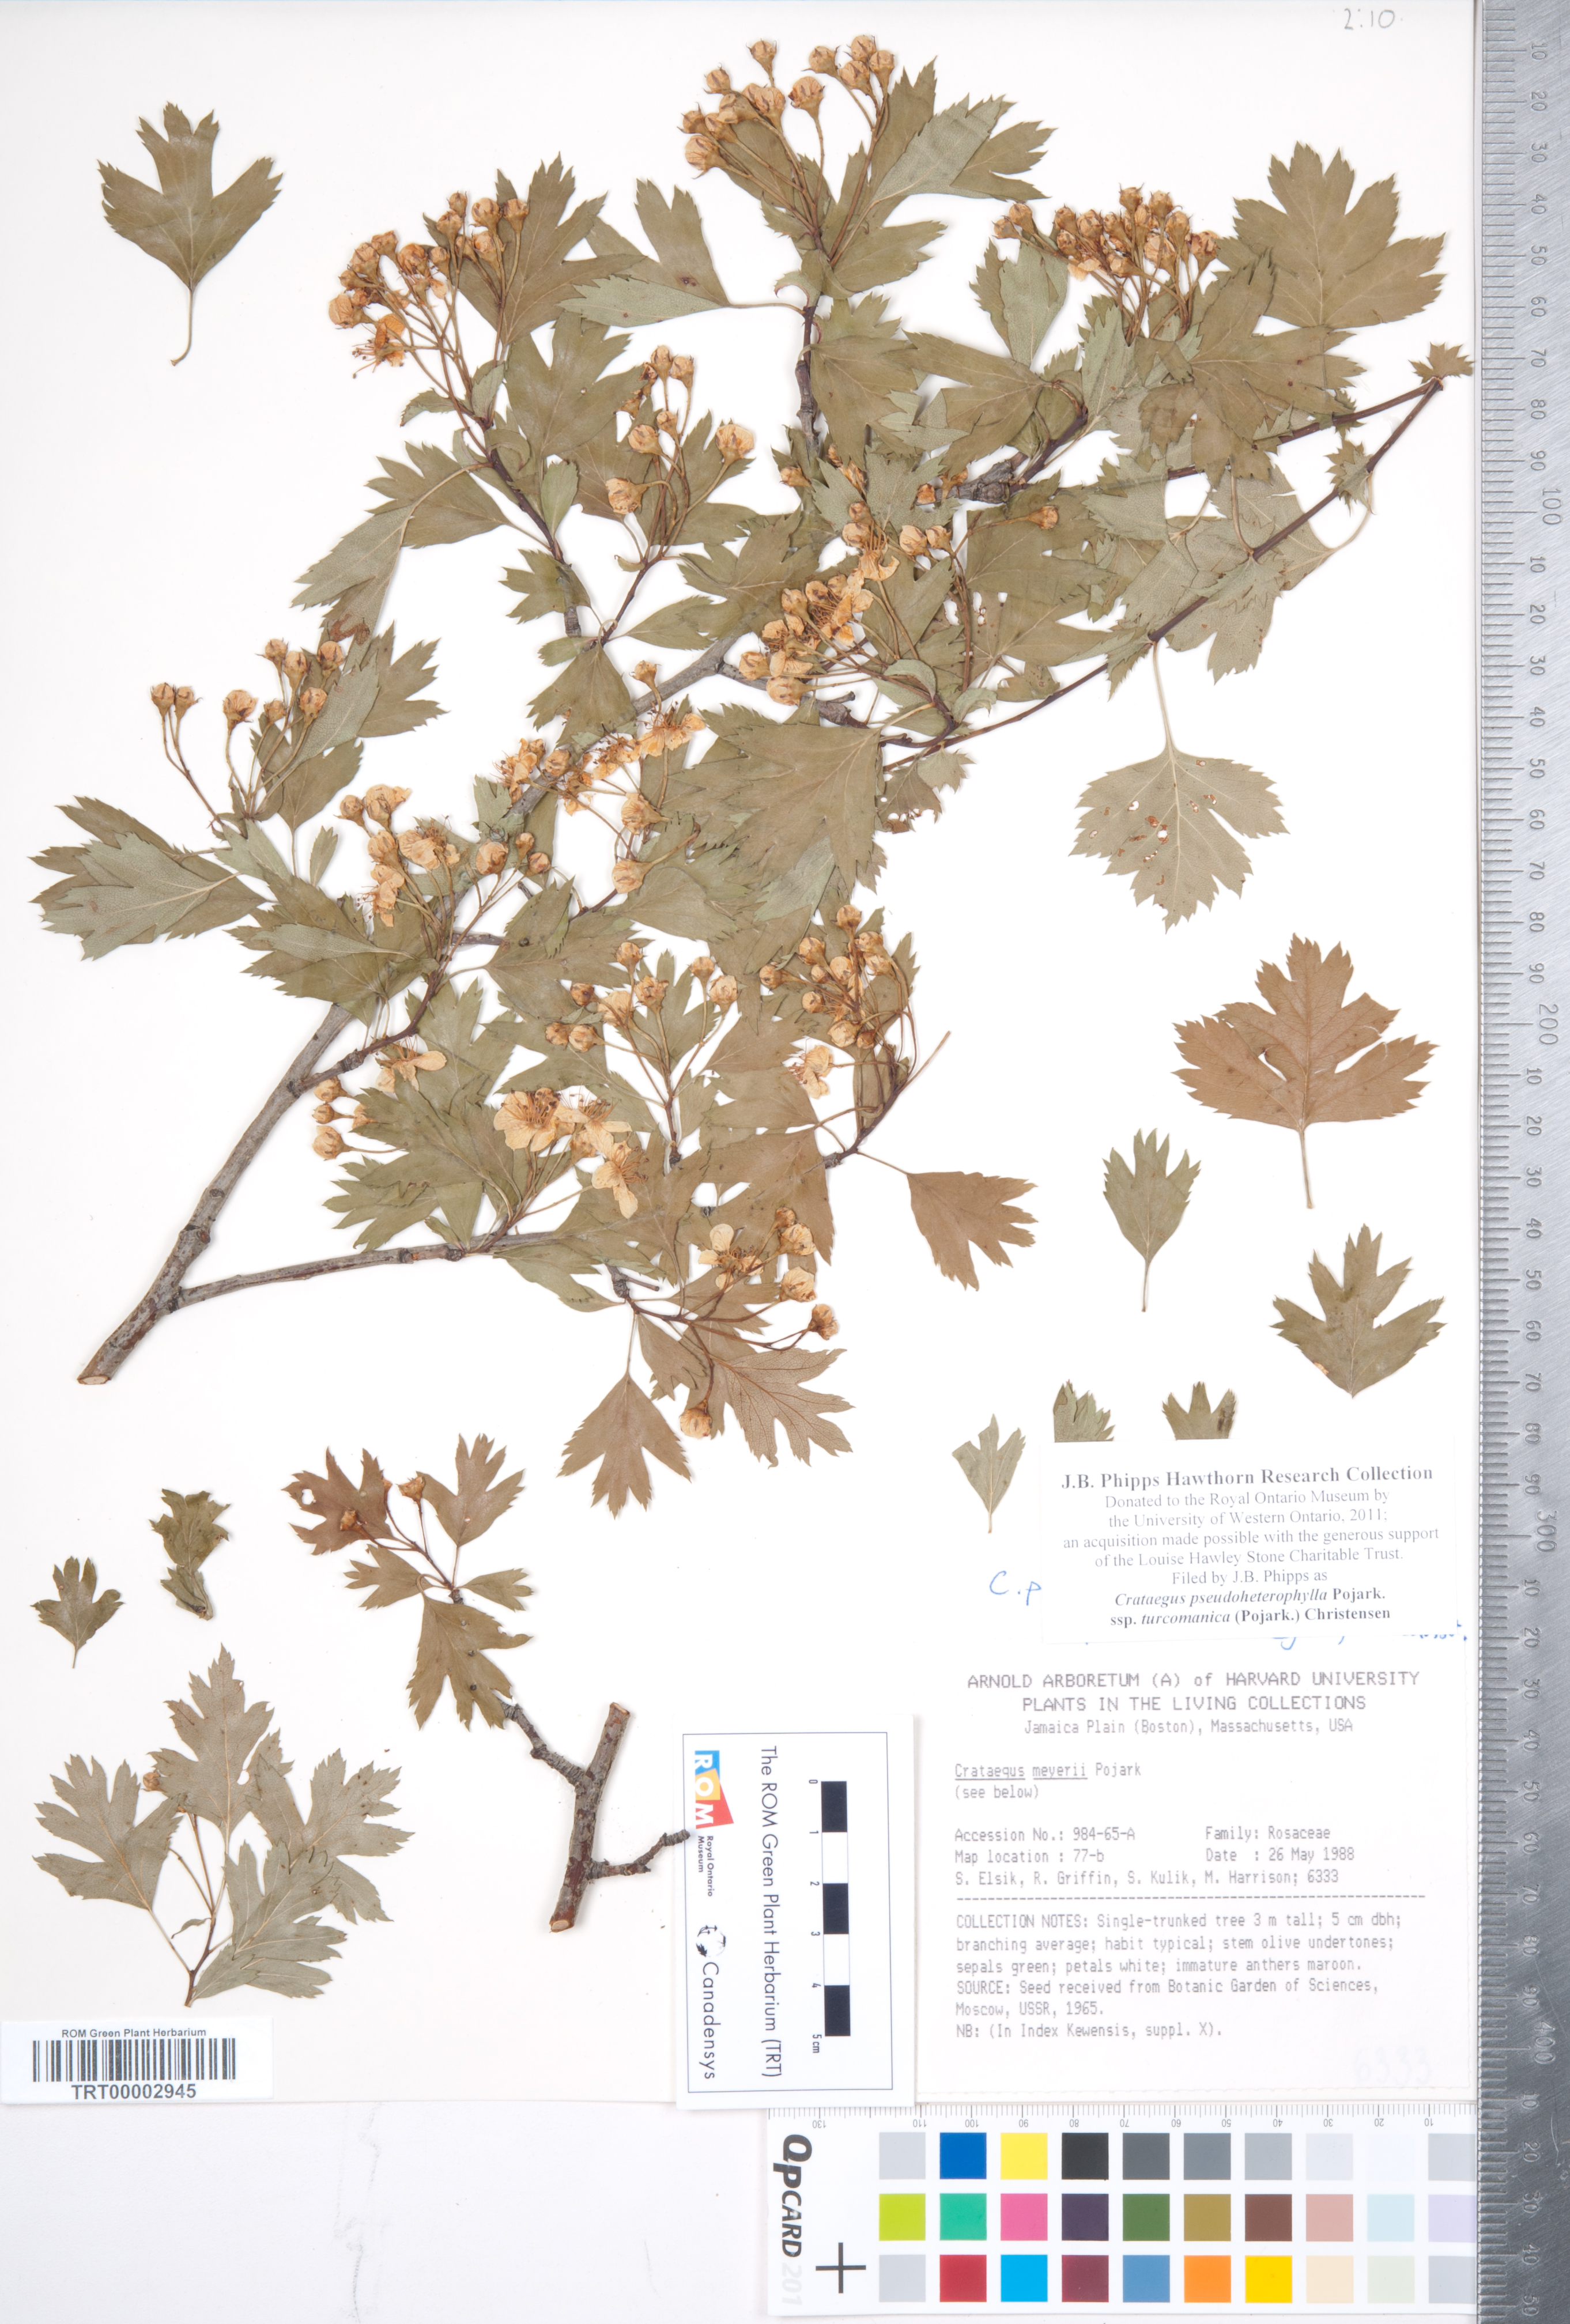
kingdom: Plantae
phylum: Tracheophyta
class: Magnoliopsida
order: Rosales
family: Rosaceae
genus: Crataegus
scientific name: Crataegus pseudoheterophylla
